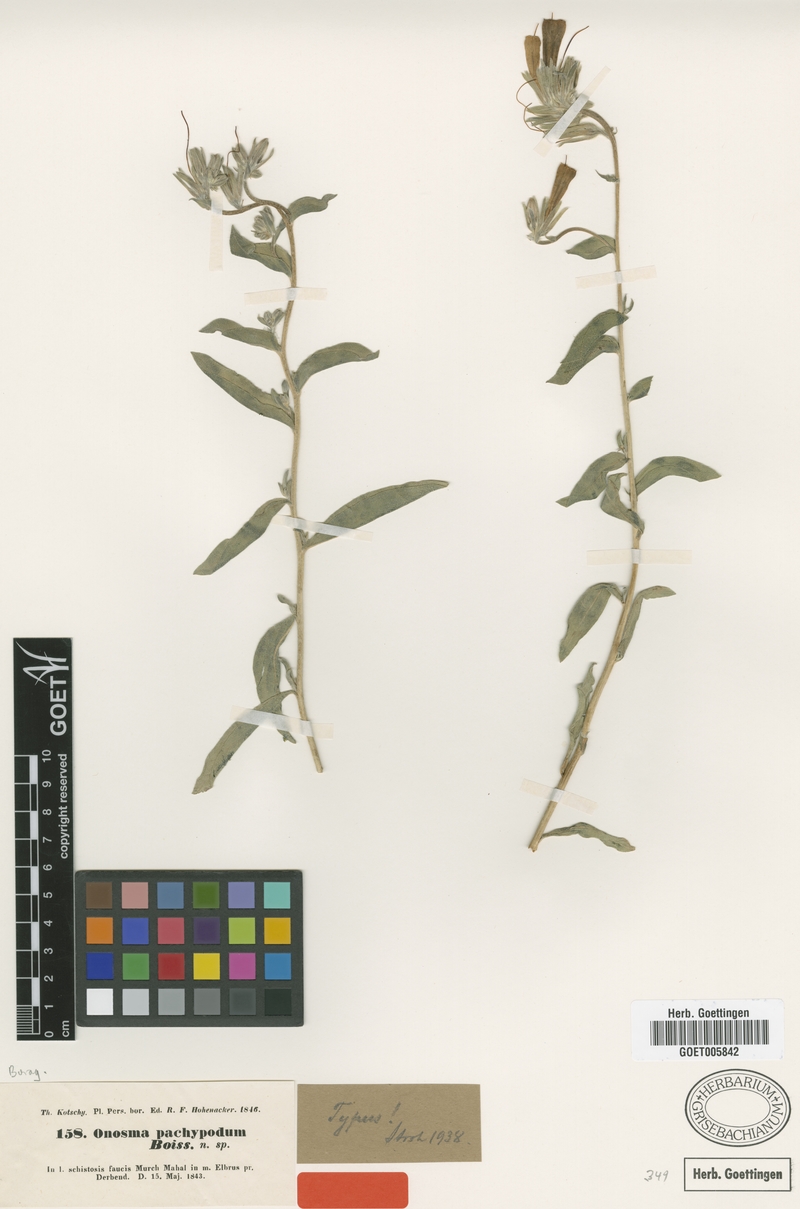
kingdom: Plantae
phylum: Tracheophyta
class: Magnoliopsida
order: Boraginales
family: Boraginaceae
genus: Onosma
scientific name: Onosma pachypoda
